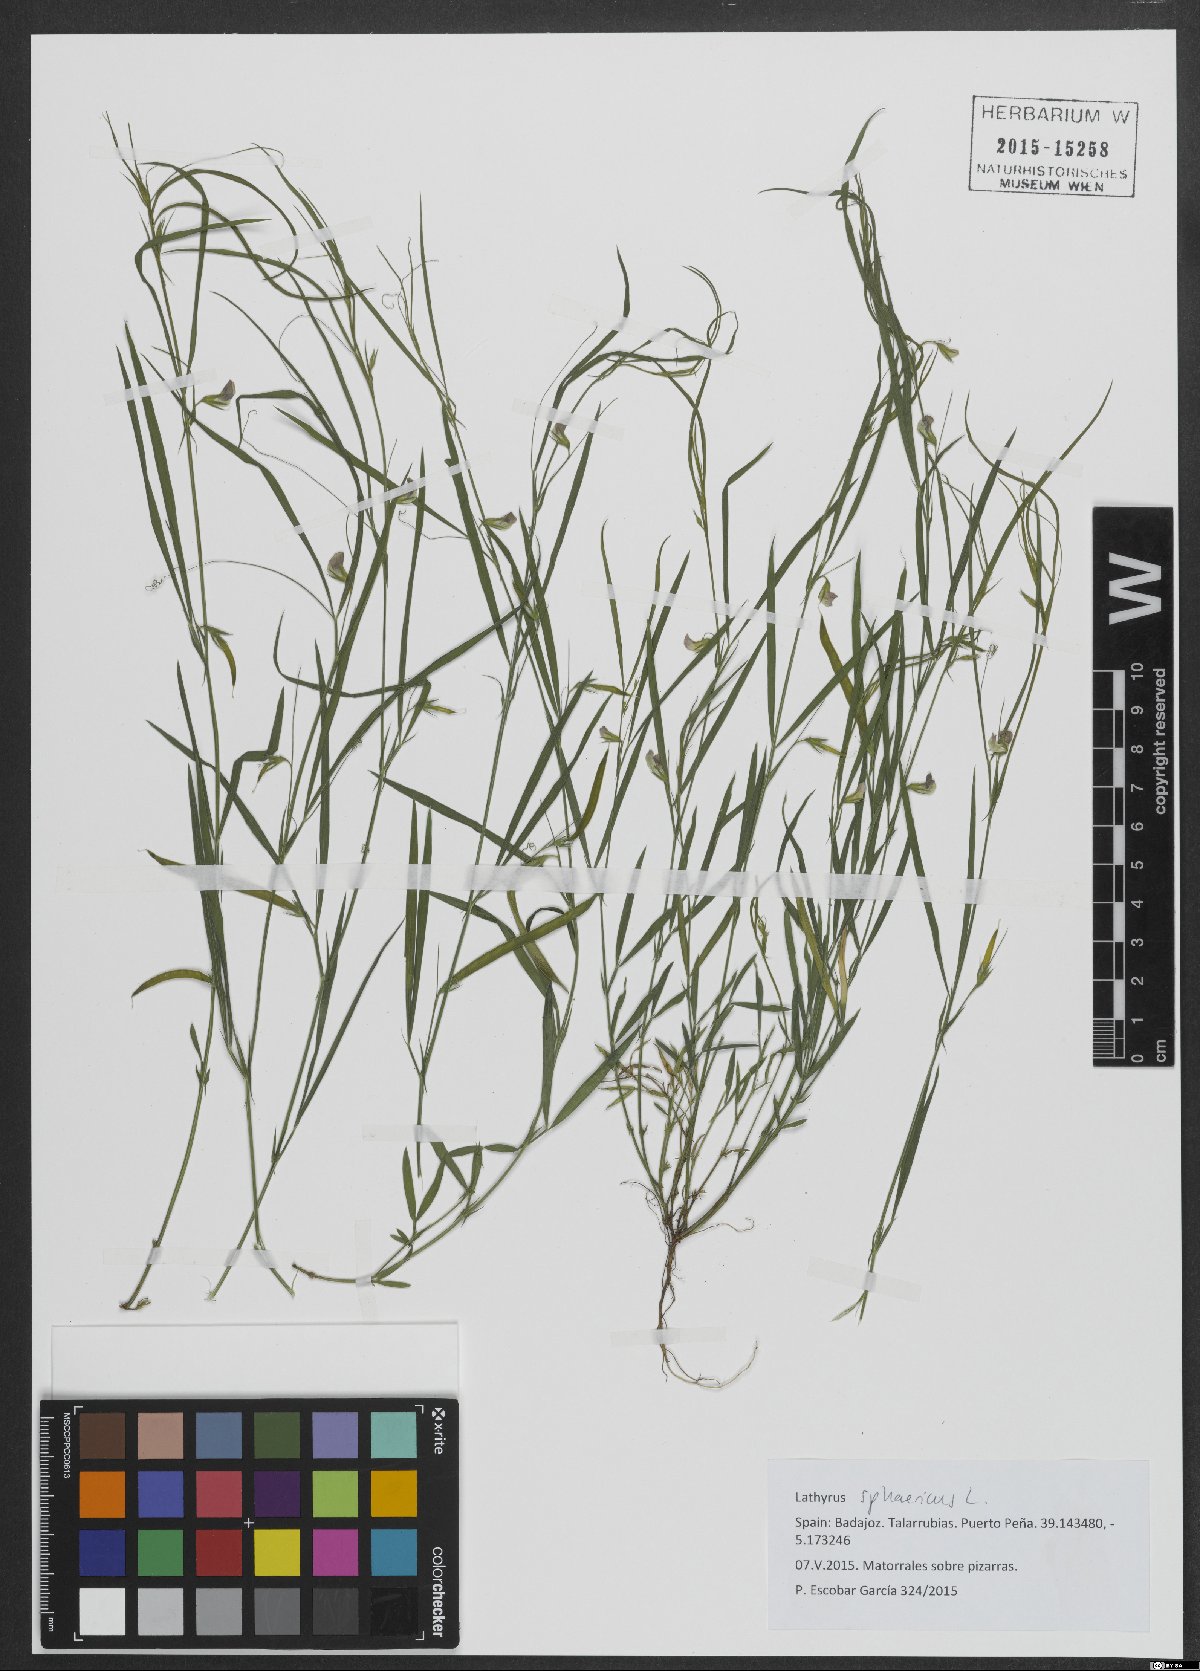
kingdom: Plantae
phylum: Tracheophyta
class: Magnoliopsida
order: Fabales
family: Fabaceae
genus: Lathyrus
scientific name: Lathyrus sphaericus
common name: Grass pea
